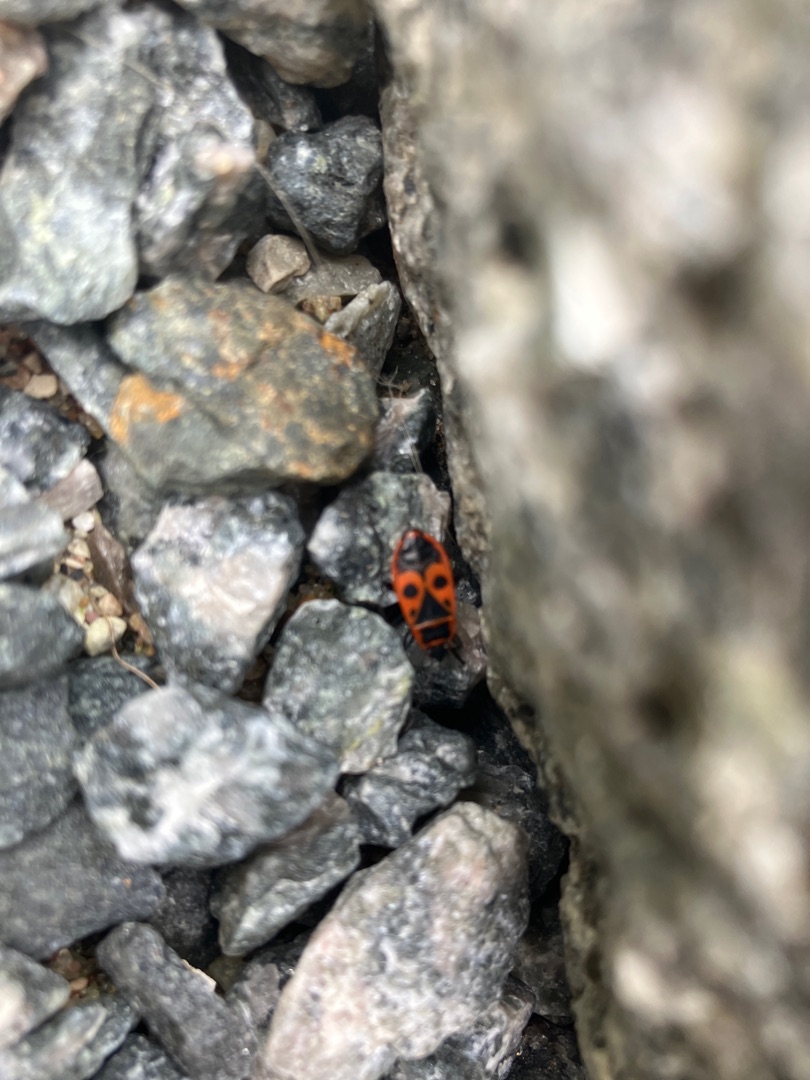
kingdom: Animalia
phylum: Arthropoda
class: Insecta
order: Hemiptera
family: Pyrrhocoridae
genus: Pyrrhocoris
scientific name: Pyrrhocoris apterus
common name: Ildtæge
